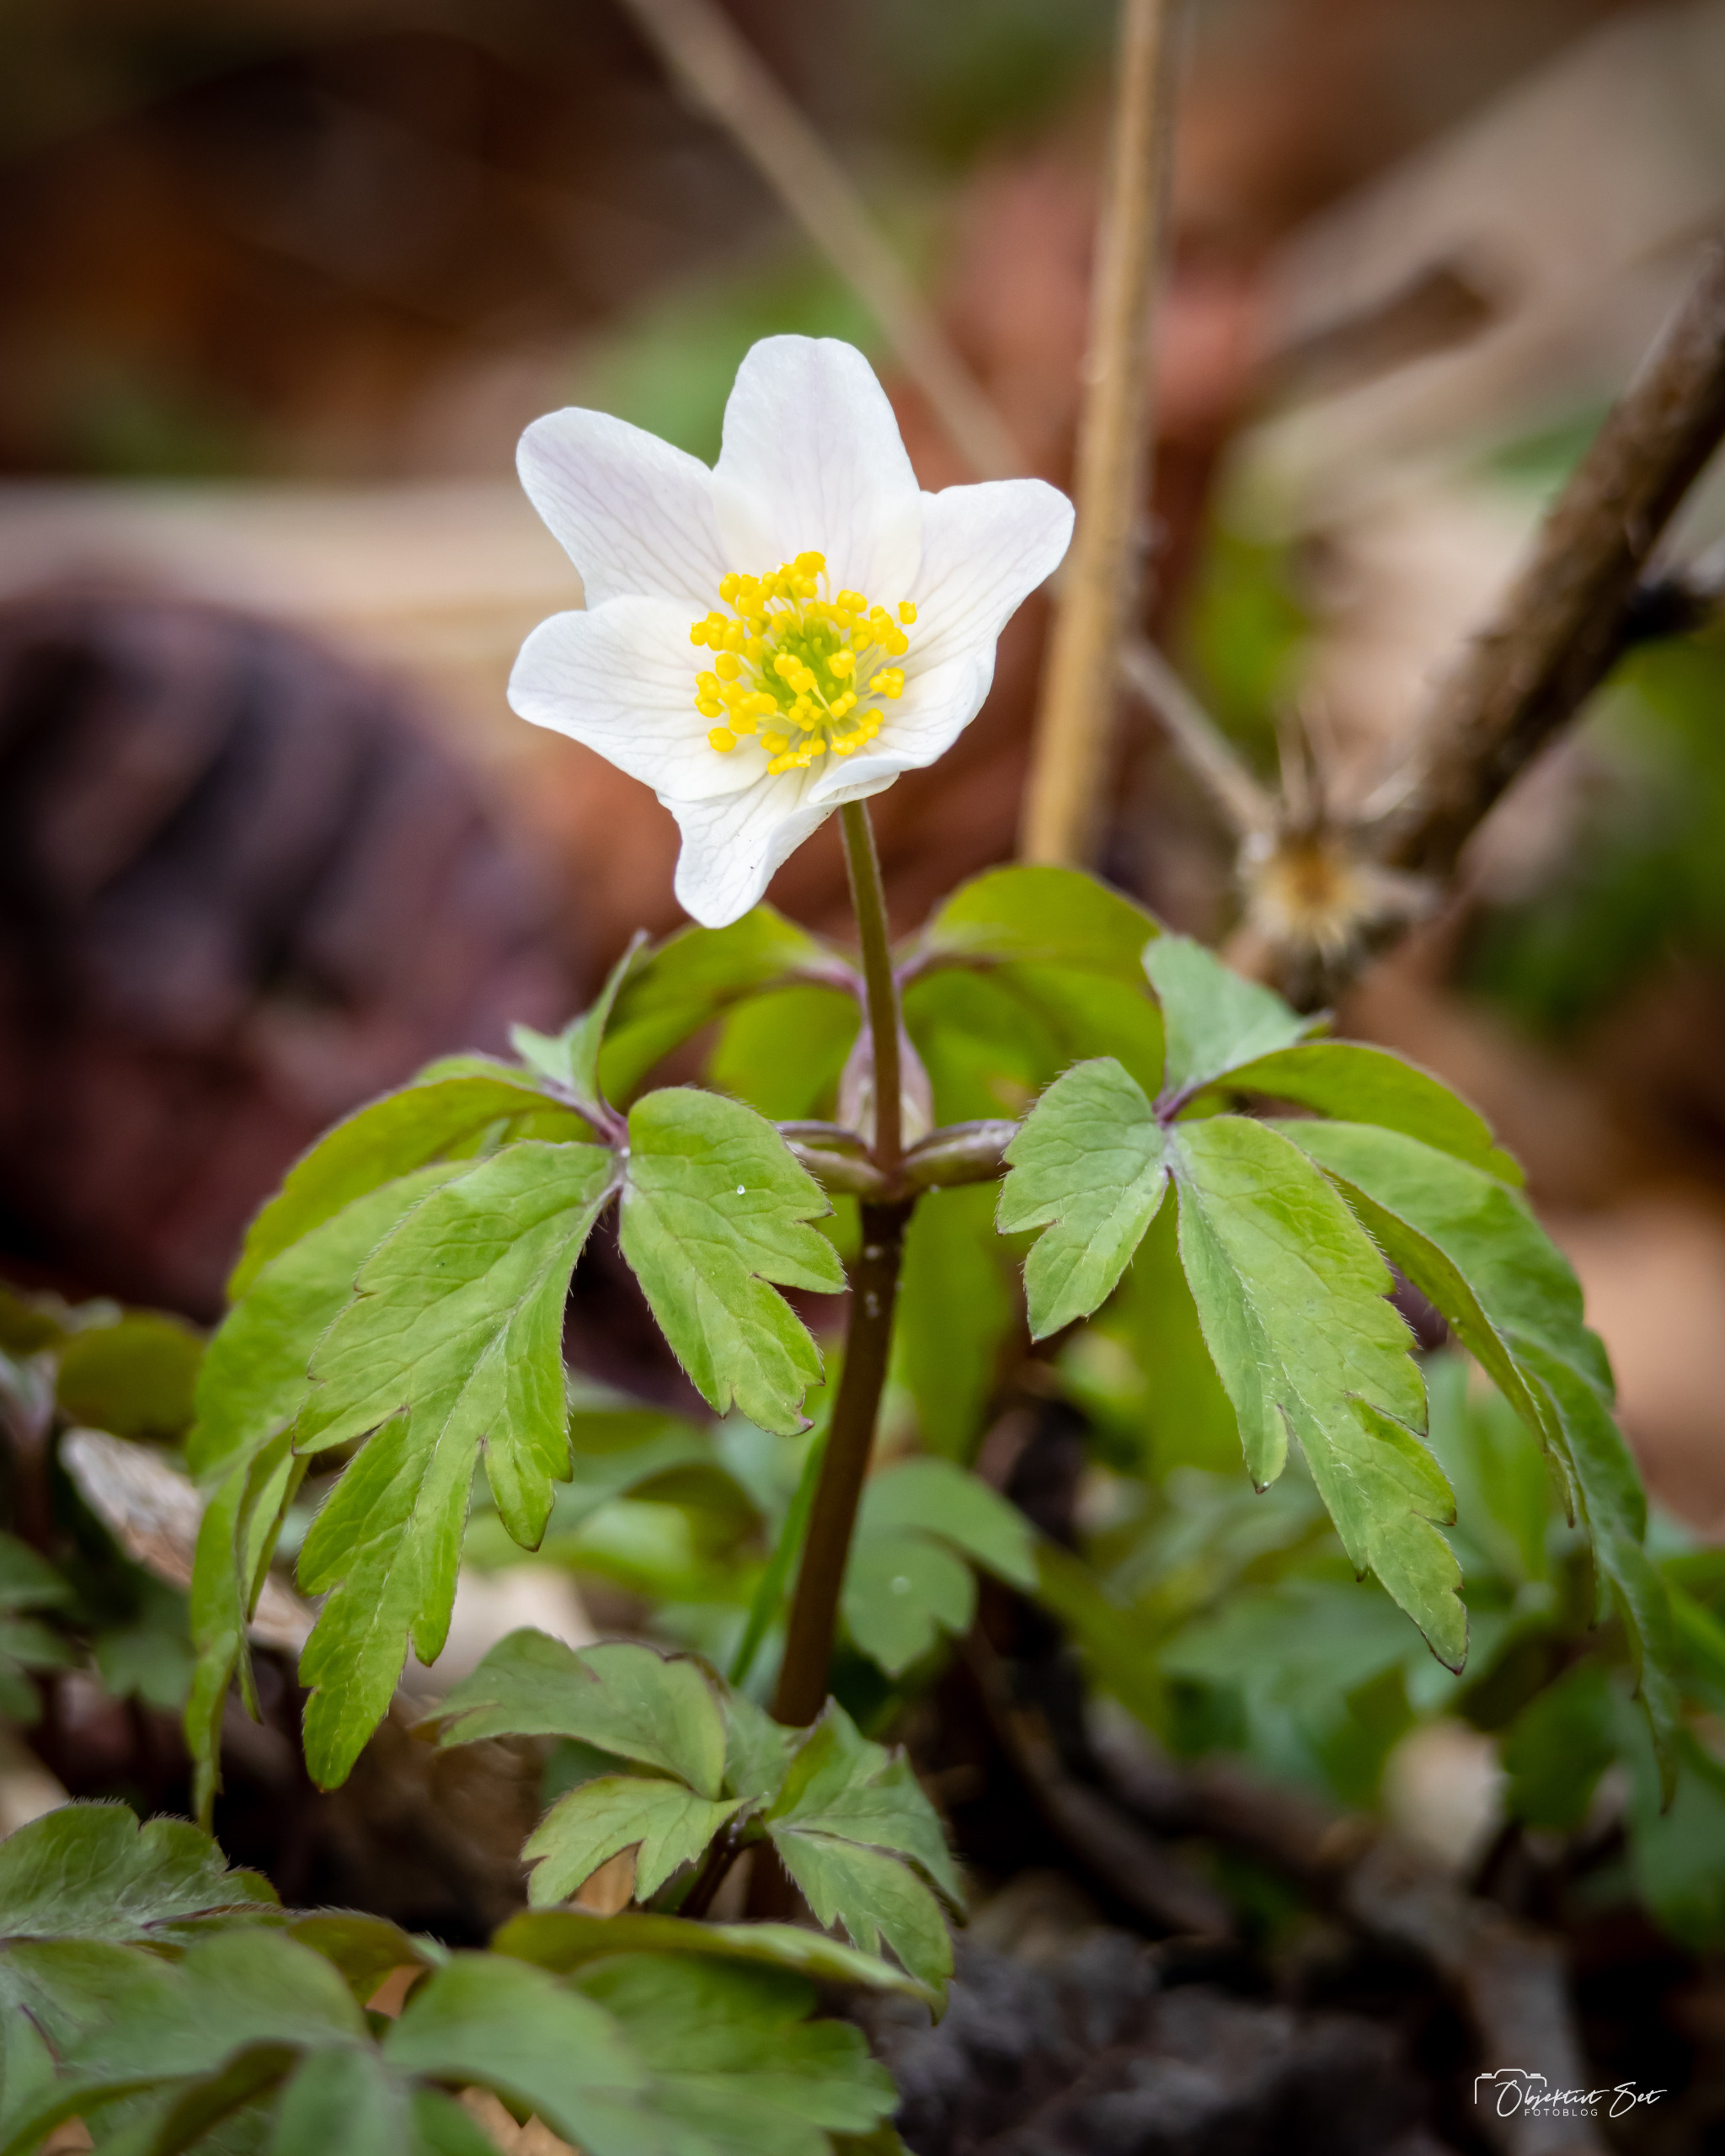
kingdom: Plantae
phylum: Tracheophyta
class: Magnoliopsida
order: Ranunculales
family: Ranunculaceae
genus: Anemone
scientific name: Anemone nemorosa
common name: Hvid anemone
